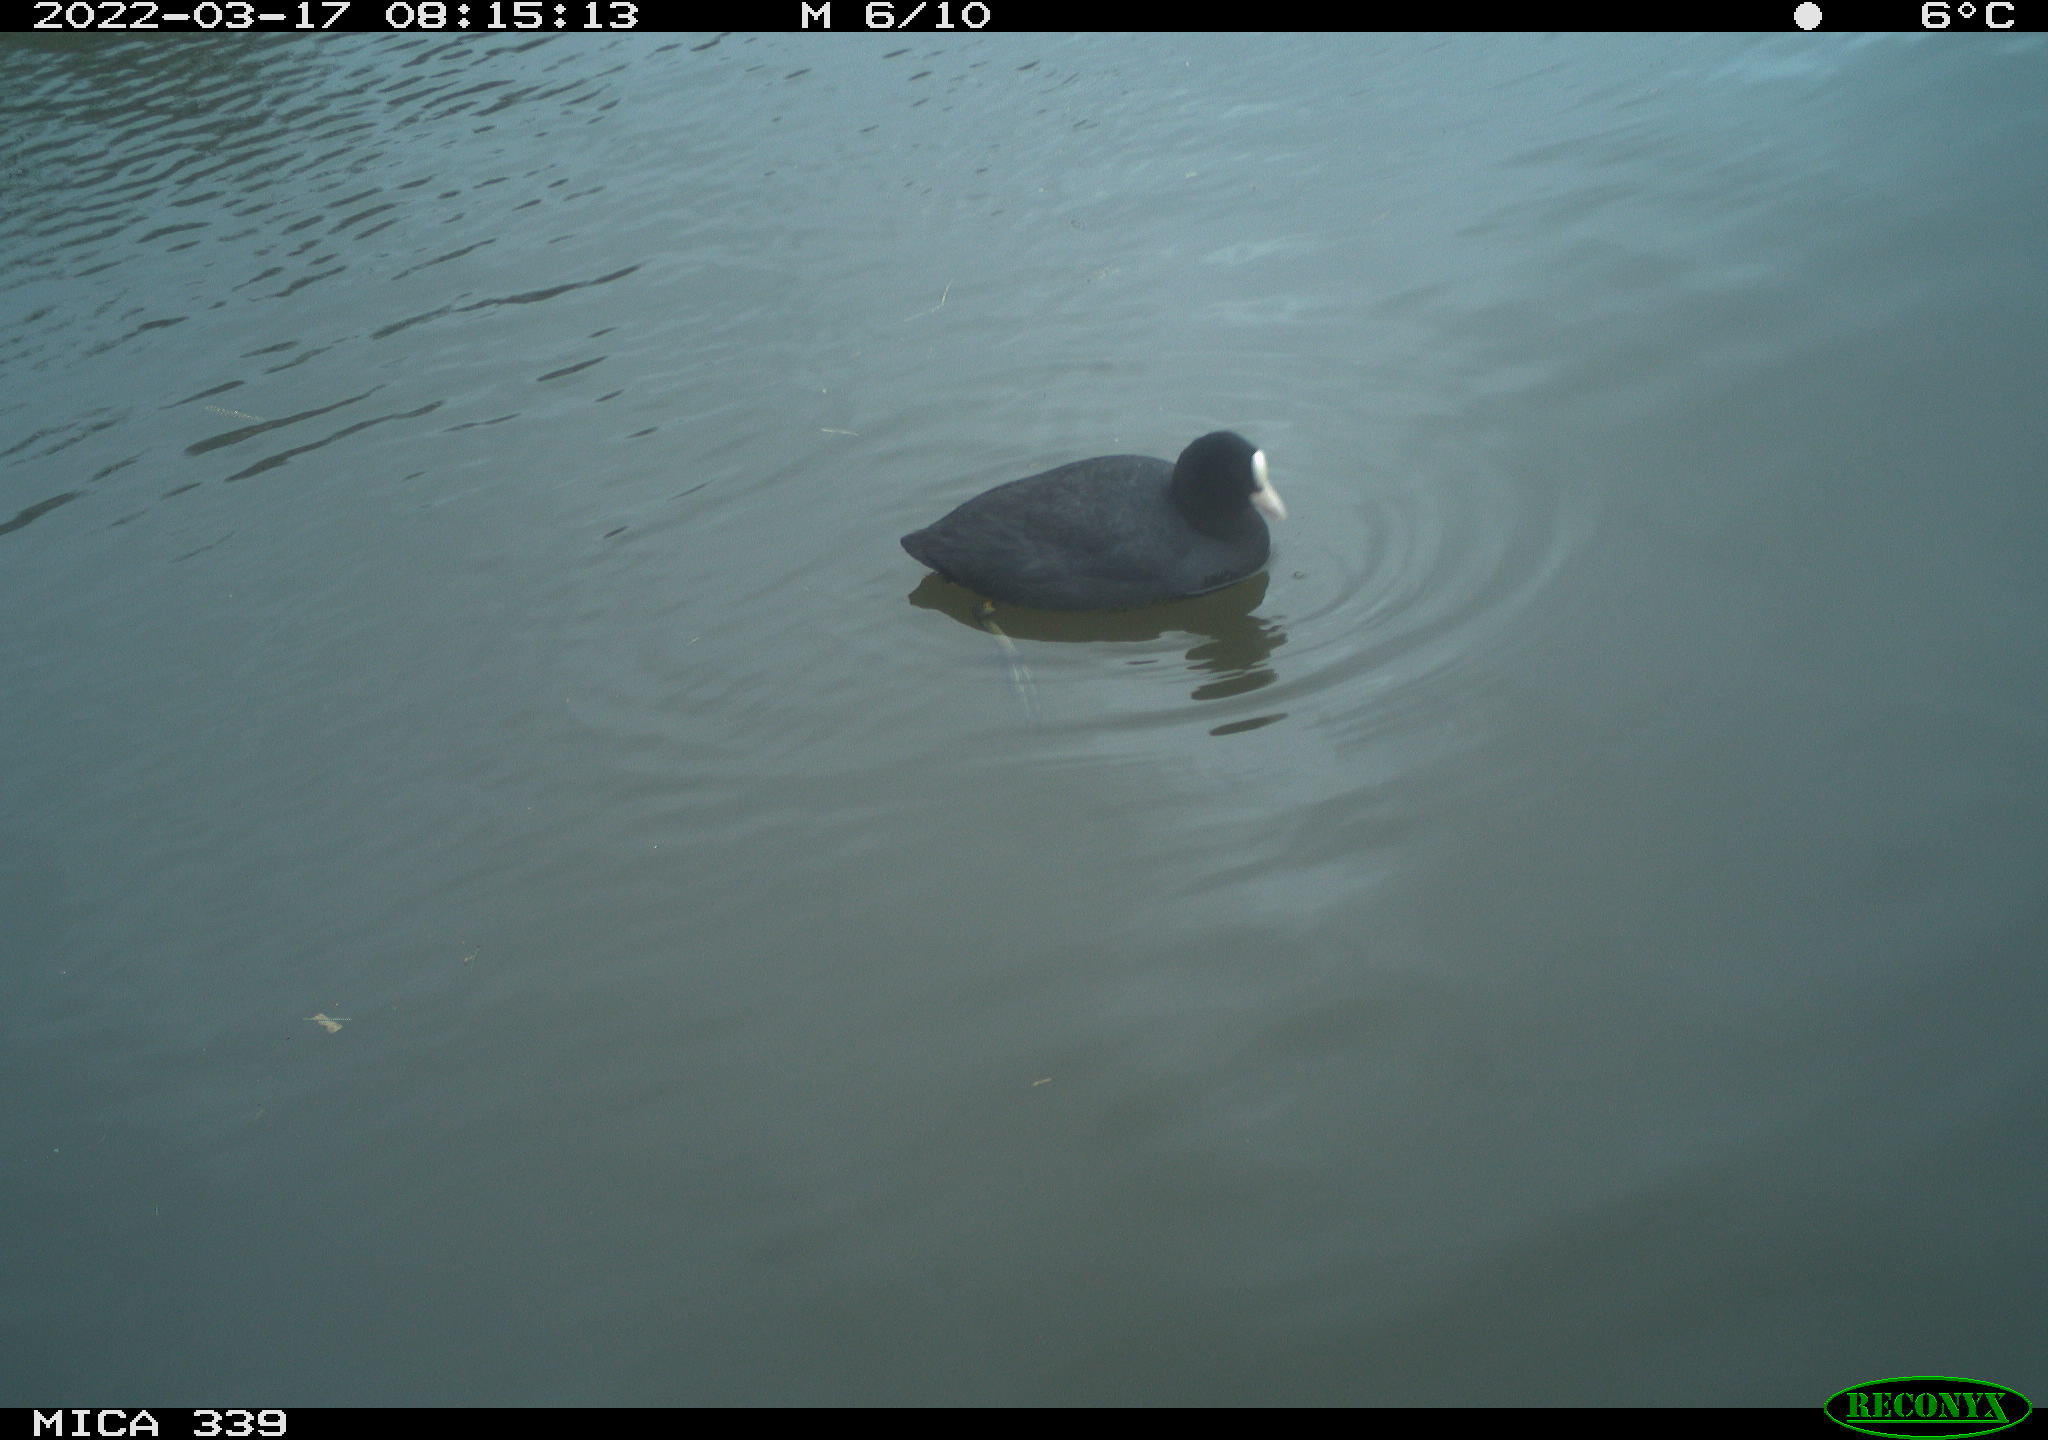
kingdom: Animalia
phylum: Chordata
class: Aves
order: Gruiformes
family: Rallidae
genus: Fulica
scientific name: Fulica atra
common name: Eurasian coot
